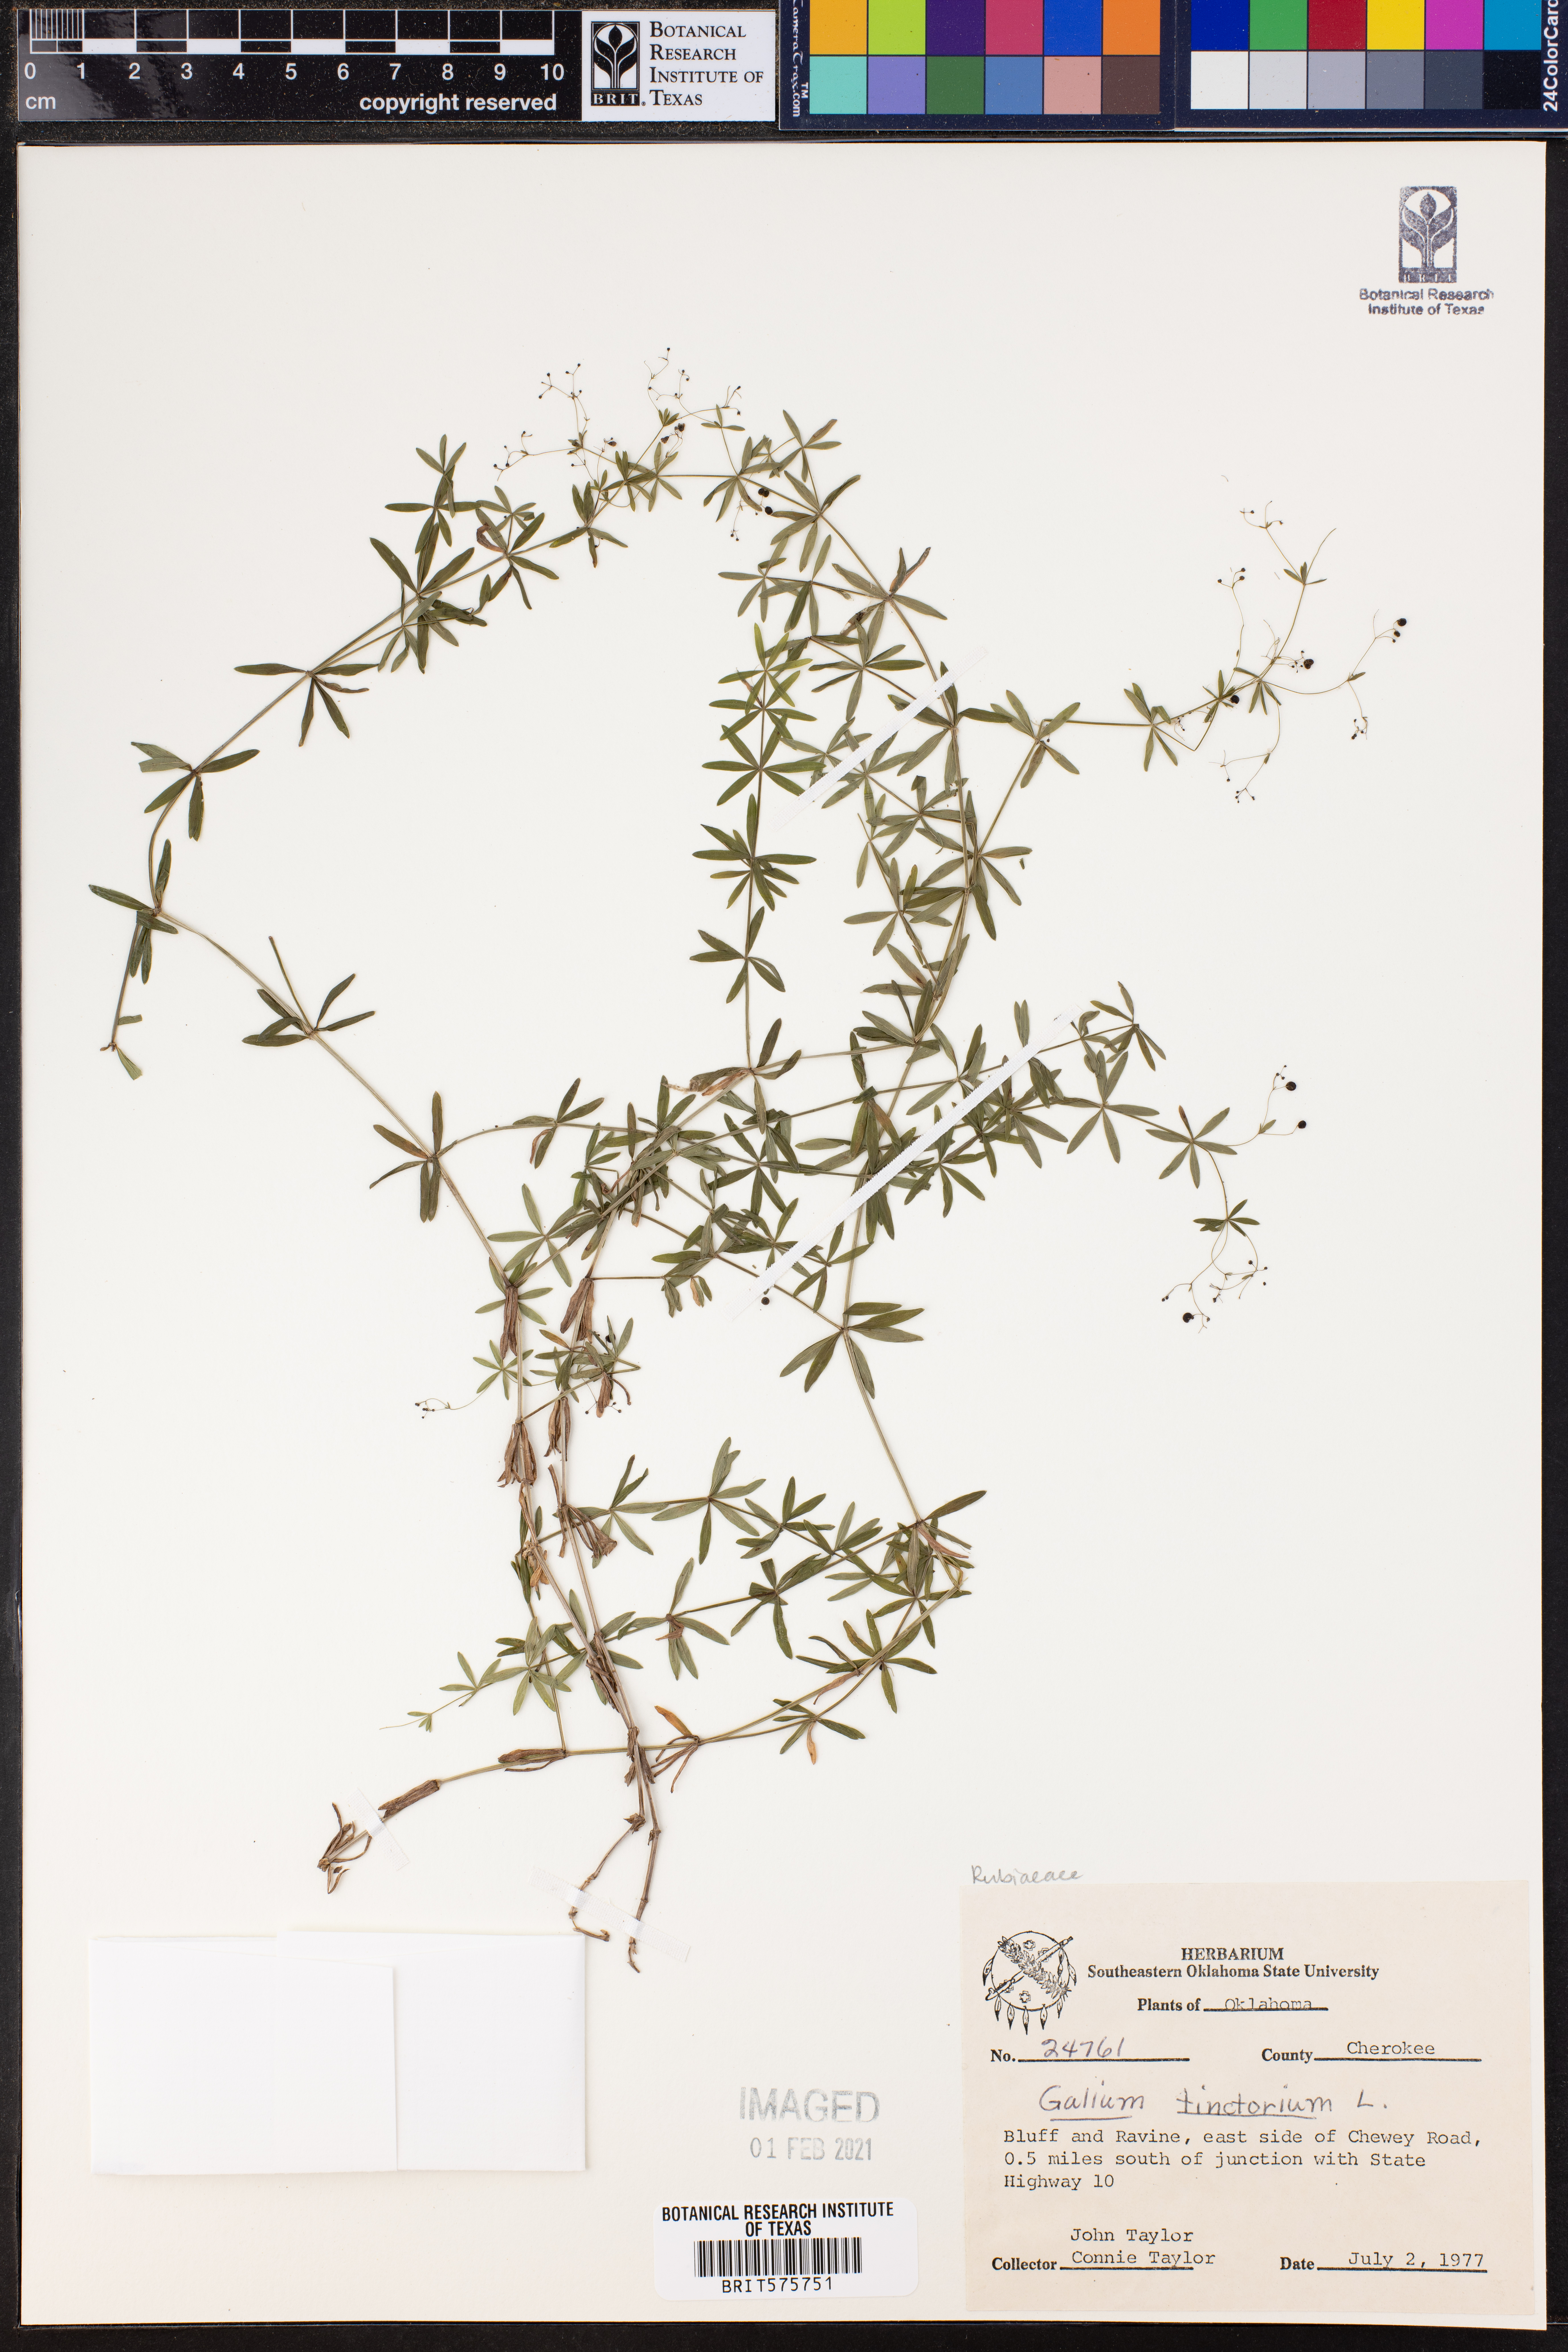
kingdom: Plantae
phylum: Tracheophyta
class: Magnoliopsida
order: Gentianales
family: Rubiaceae
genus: Asperula
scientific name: Asperula tinctoria
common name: Dyer's woodruff
